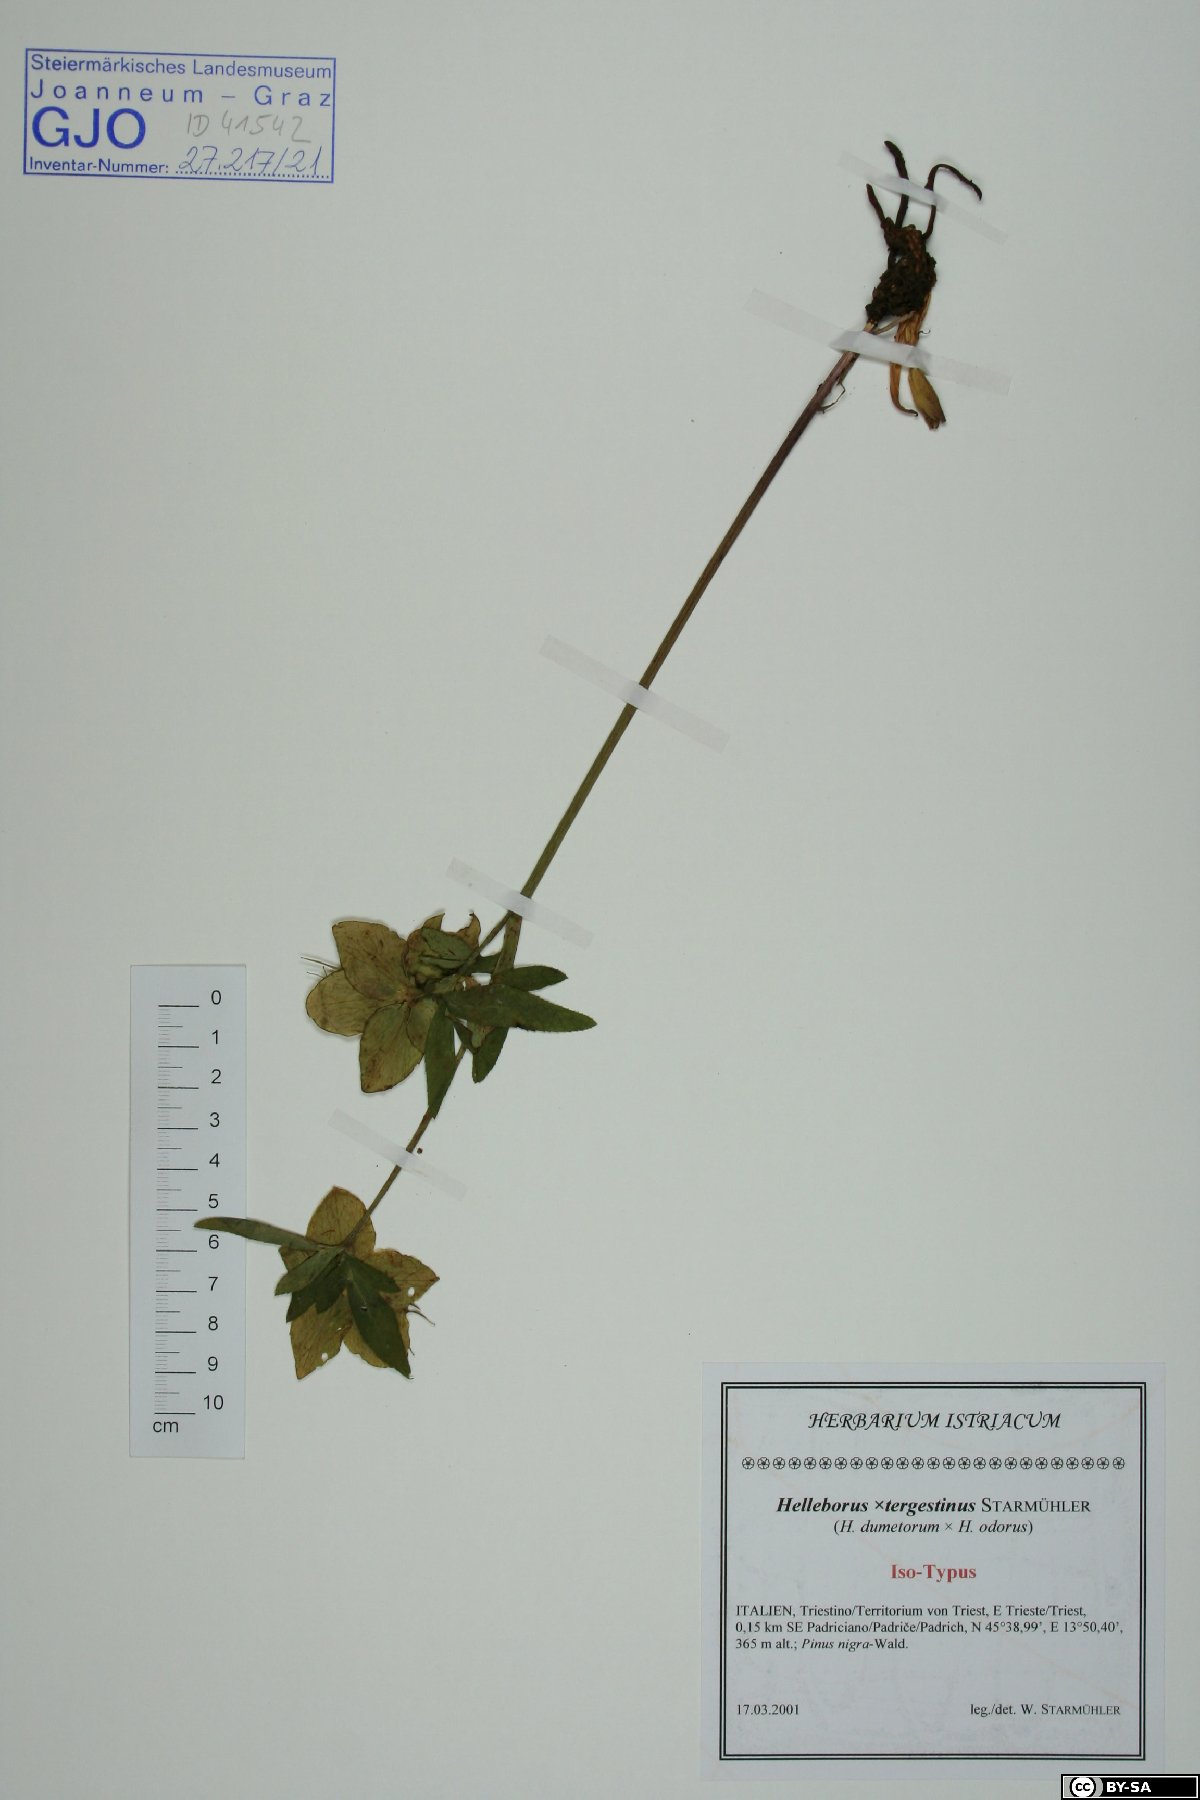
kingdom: Plantae
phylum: Tracheophyta
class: Magnoliopsida
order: Ranunculales
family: Ranunculaceae
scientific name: Ranunculaceae
